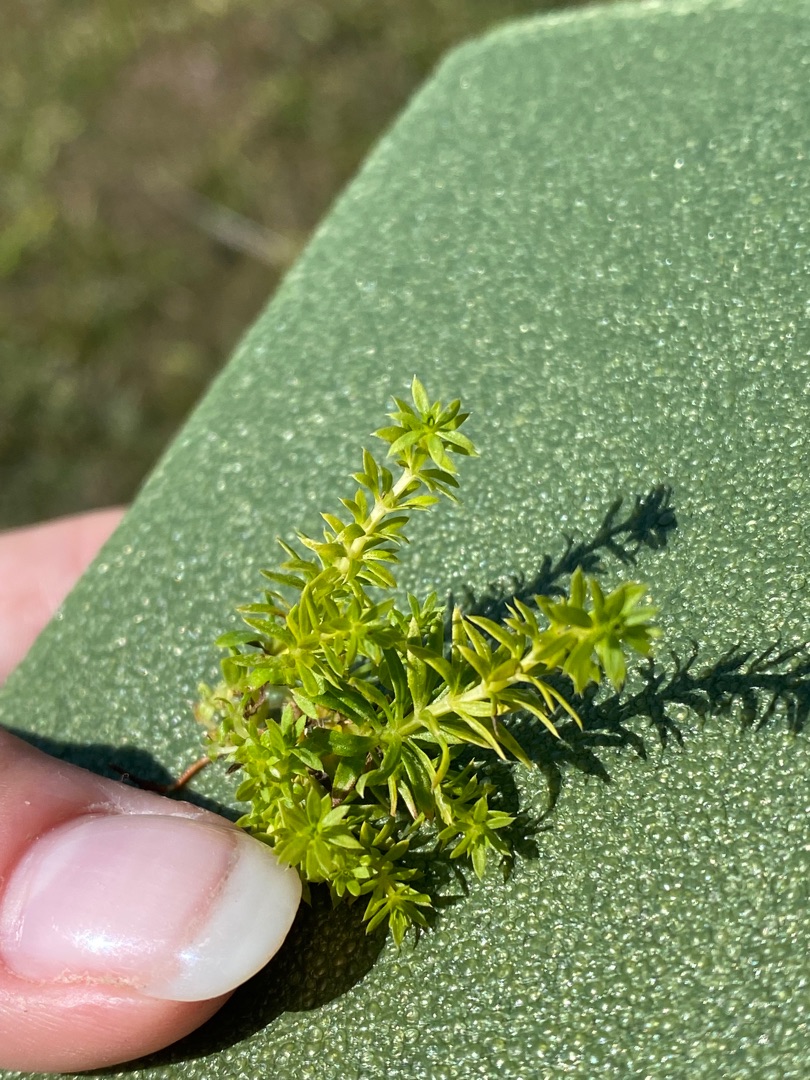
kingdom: Plantae
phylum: Tracheophyta
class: Magnoliopsida
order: Gentianales
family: Rubiaceae
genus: Galium
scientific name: Galium mollugo
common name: Hvid snerre
